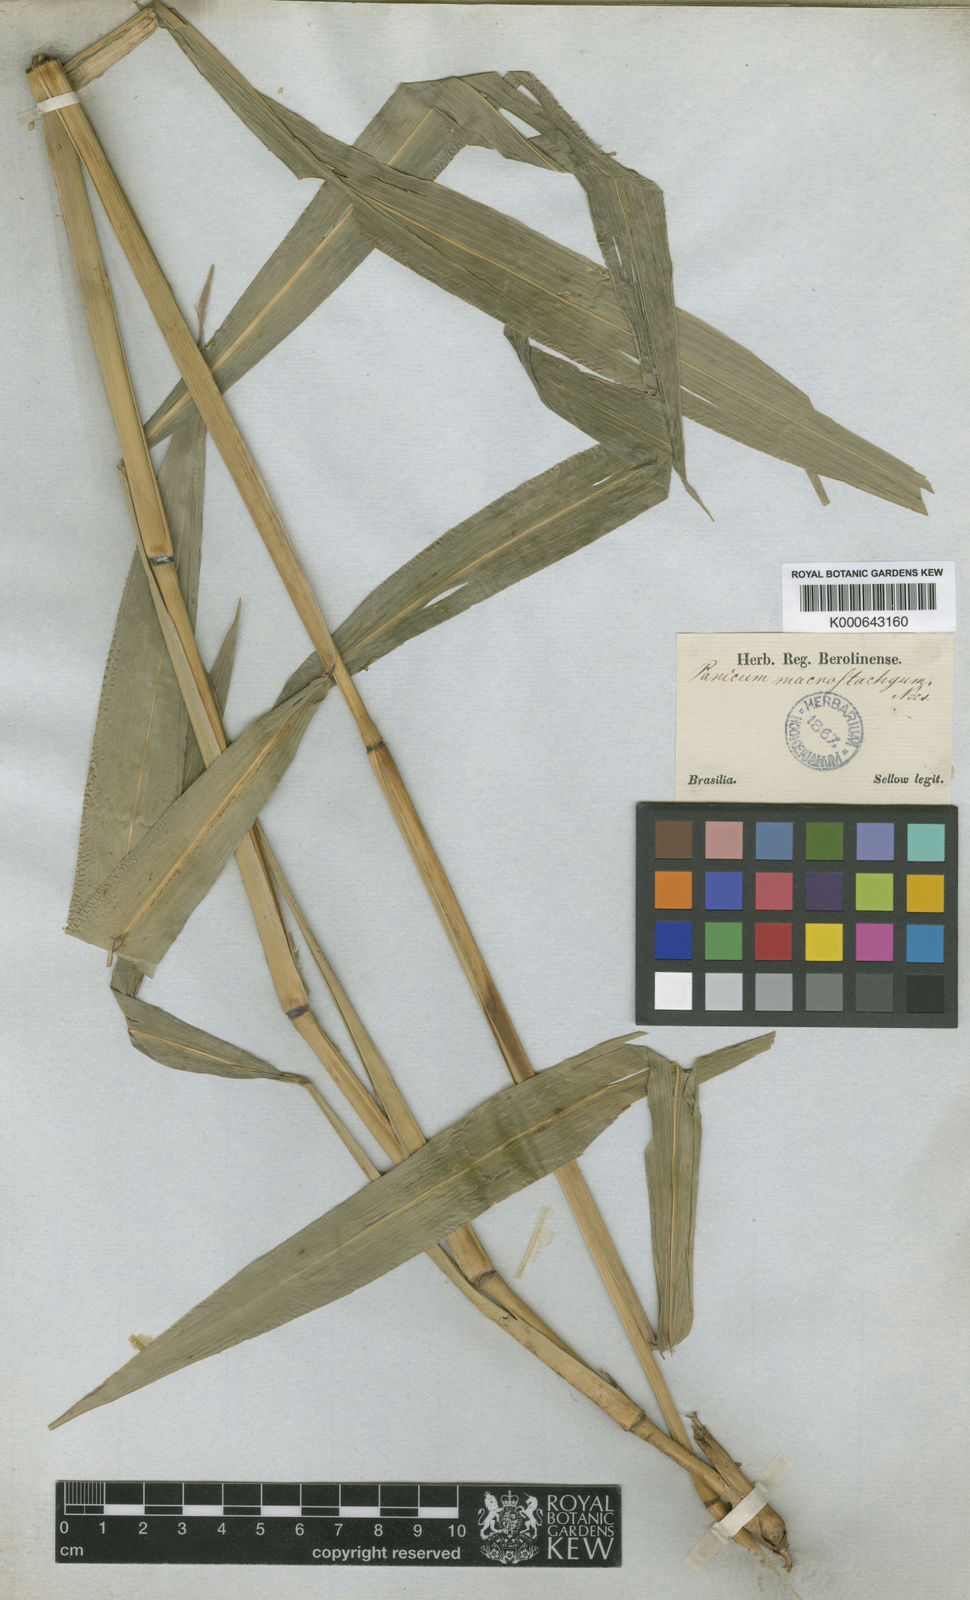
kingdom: Plantae
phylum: Tracheophyta
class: Liliopsida
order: Poales
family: Poaceae
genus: Setaria
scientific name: Setaria vulpiseta
